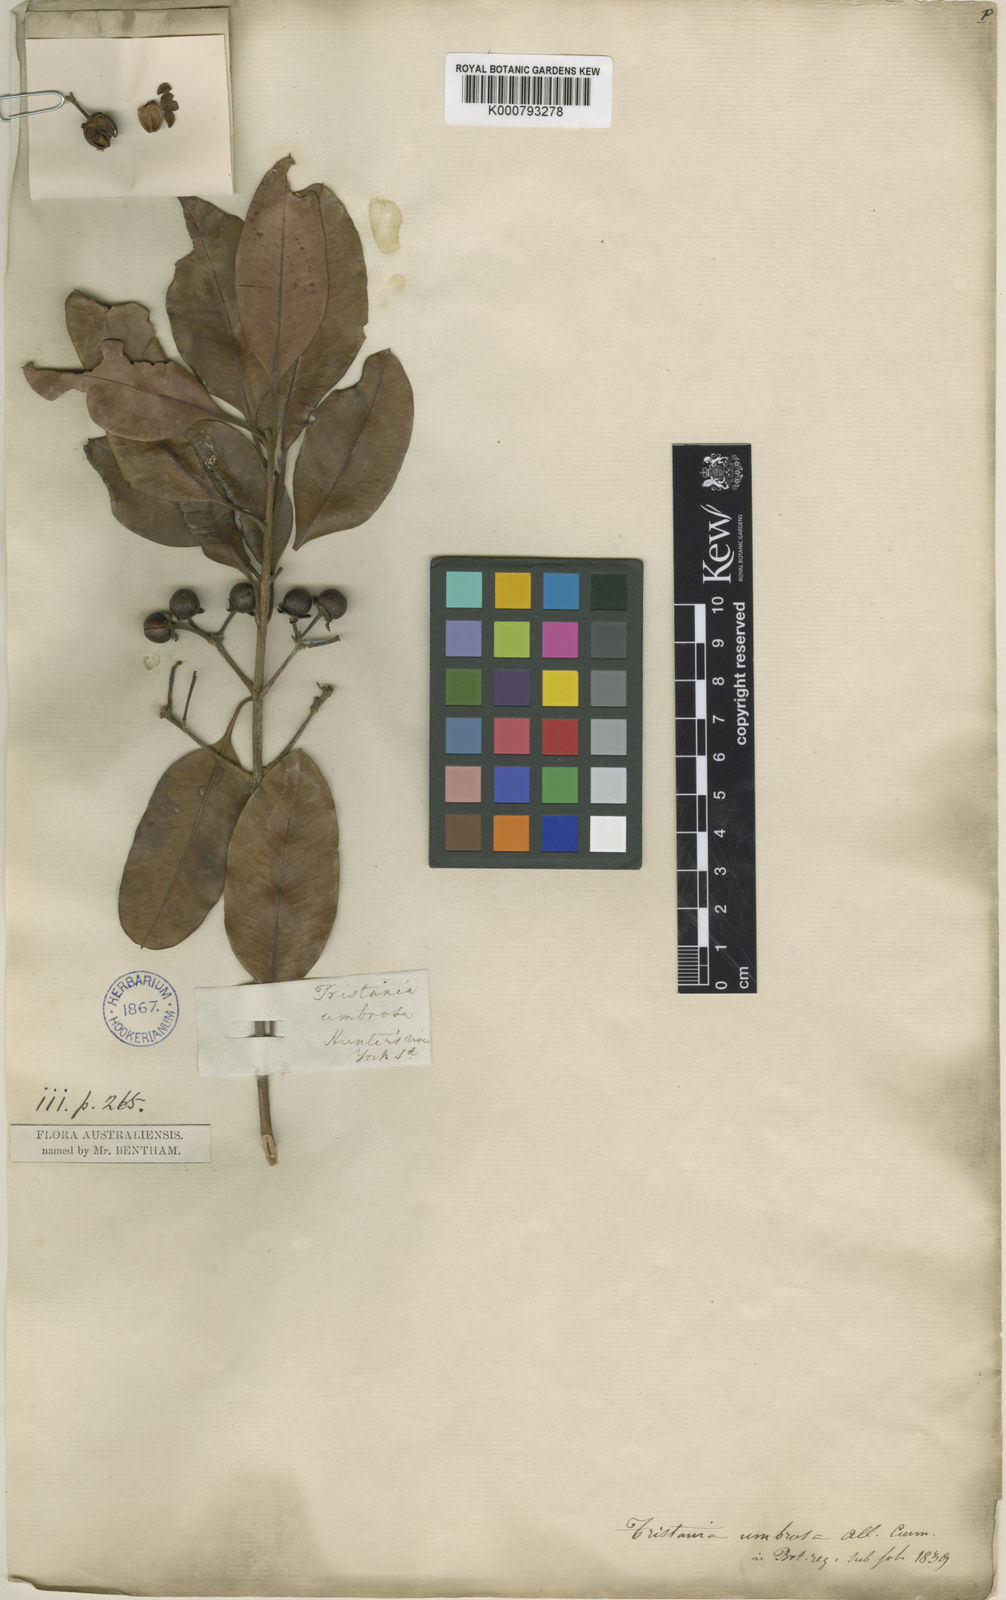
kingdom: Plantae
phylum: Tracheophyta
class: Magnoliopsida
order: Myrtales
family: Myrtaceae
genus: Xanthostemon
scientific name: Xanthostemon umbrosus
